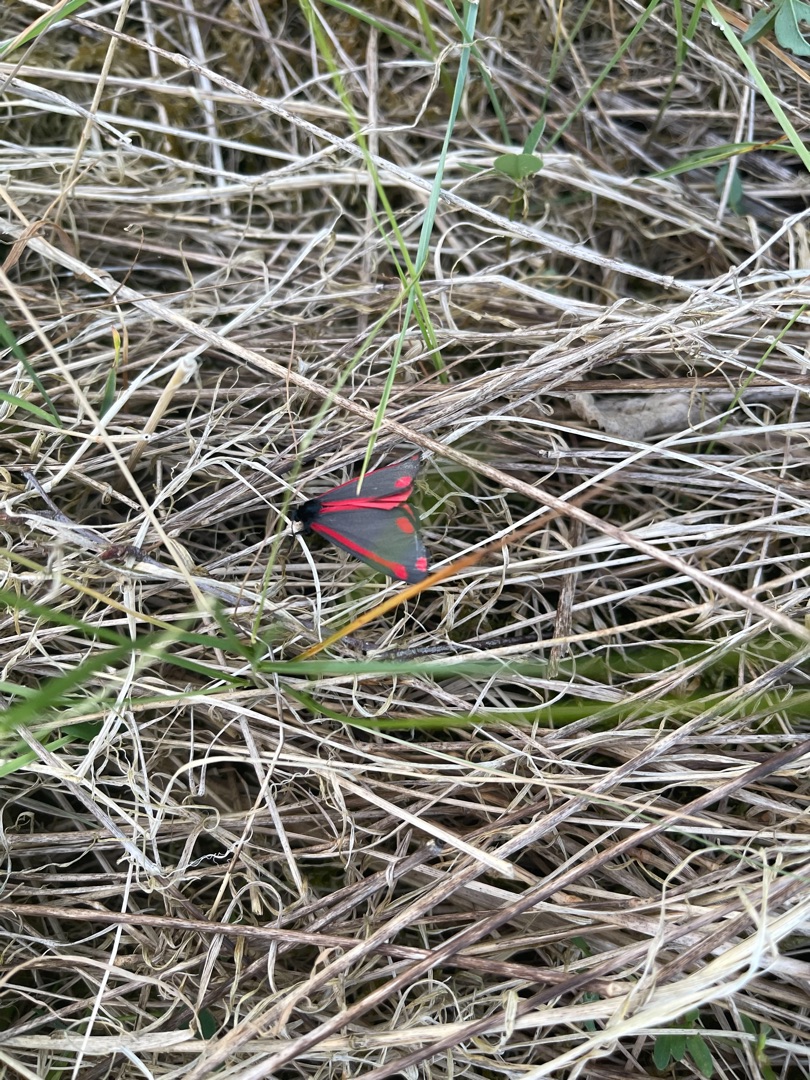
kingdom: Animalia
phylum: Arthropoda
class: Insecta
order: Lepidoptera
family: Erebidae
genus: Tyria
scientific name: Tyria jacobaeae
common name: Blodplet
